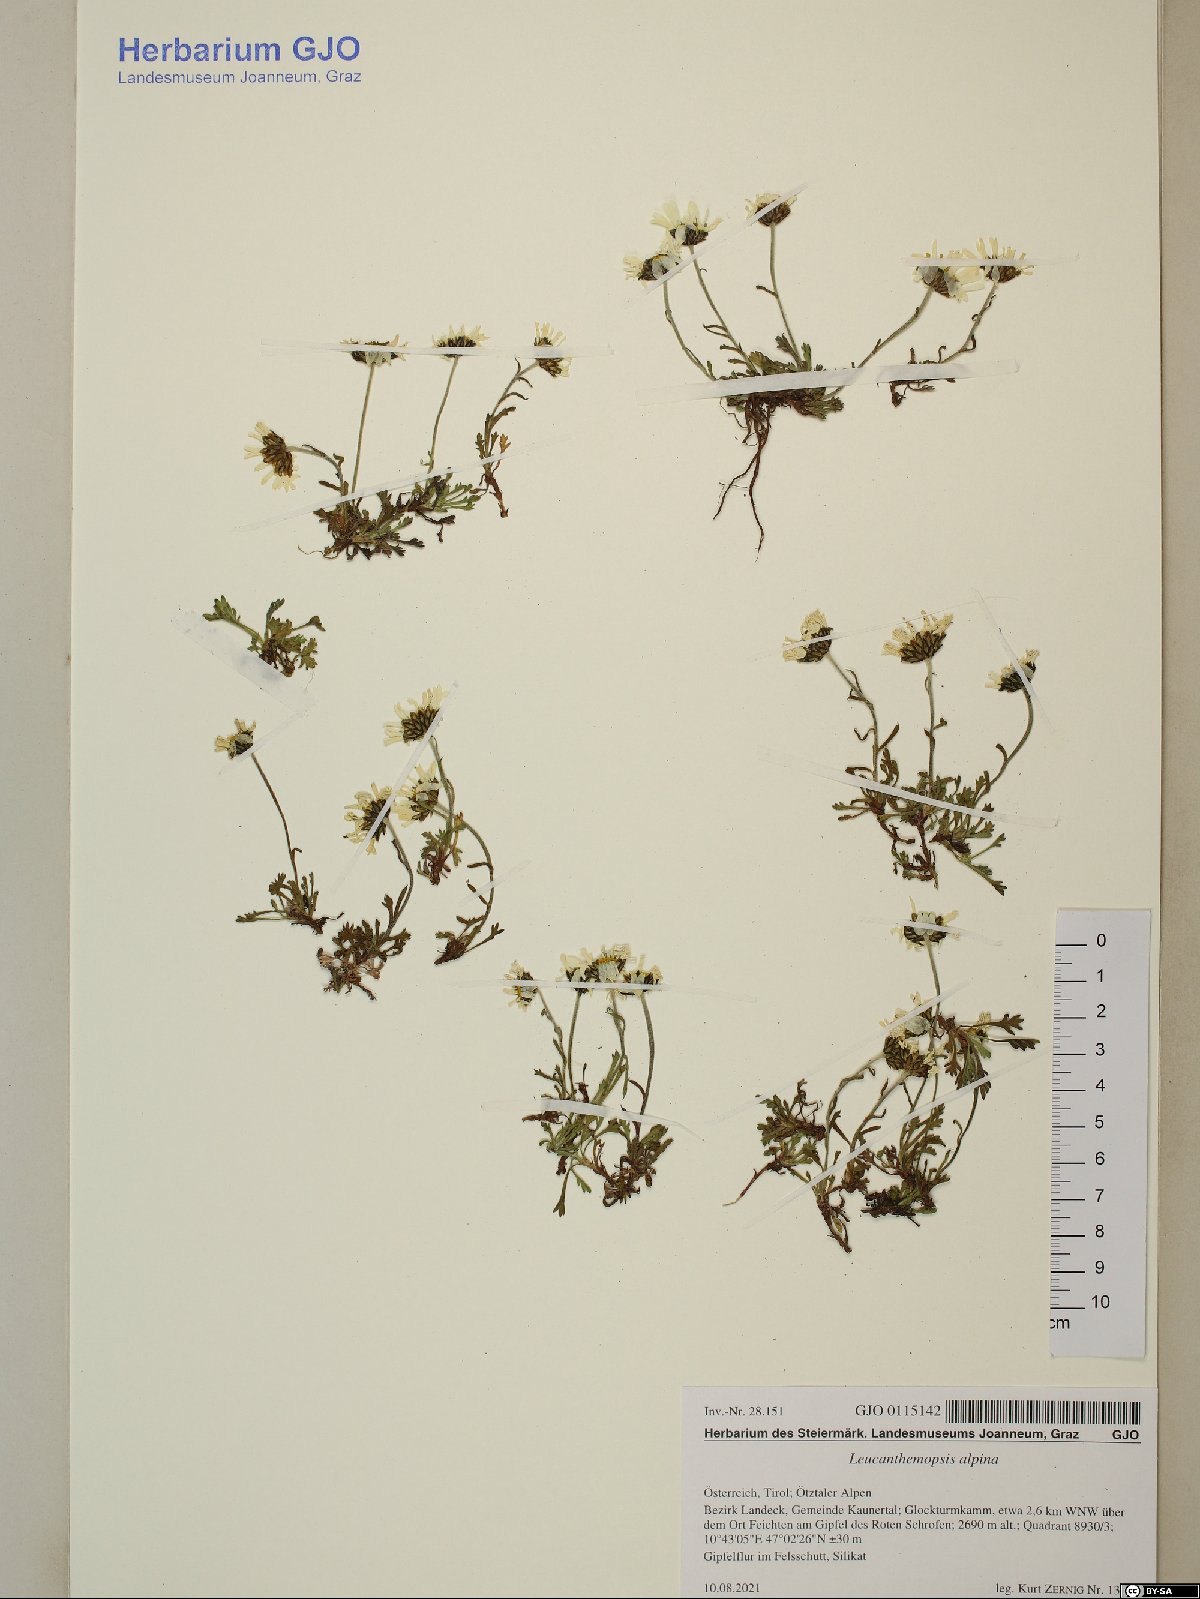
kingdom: Plantae
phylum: Tracheophyta
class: Magnoliopsida
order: Asterales
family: Asteraceae
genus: Leucanthemopsis
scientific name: Leucanthemopsis alpina
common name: Alpine moon daisy
